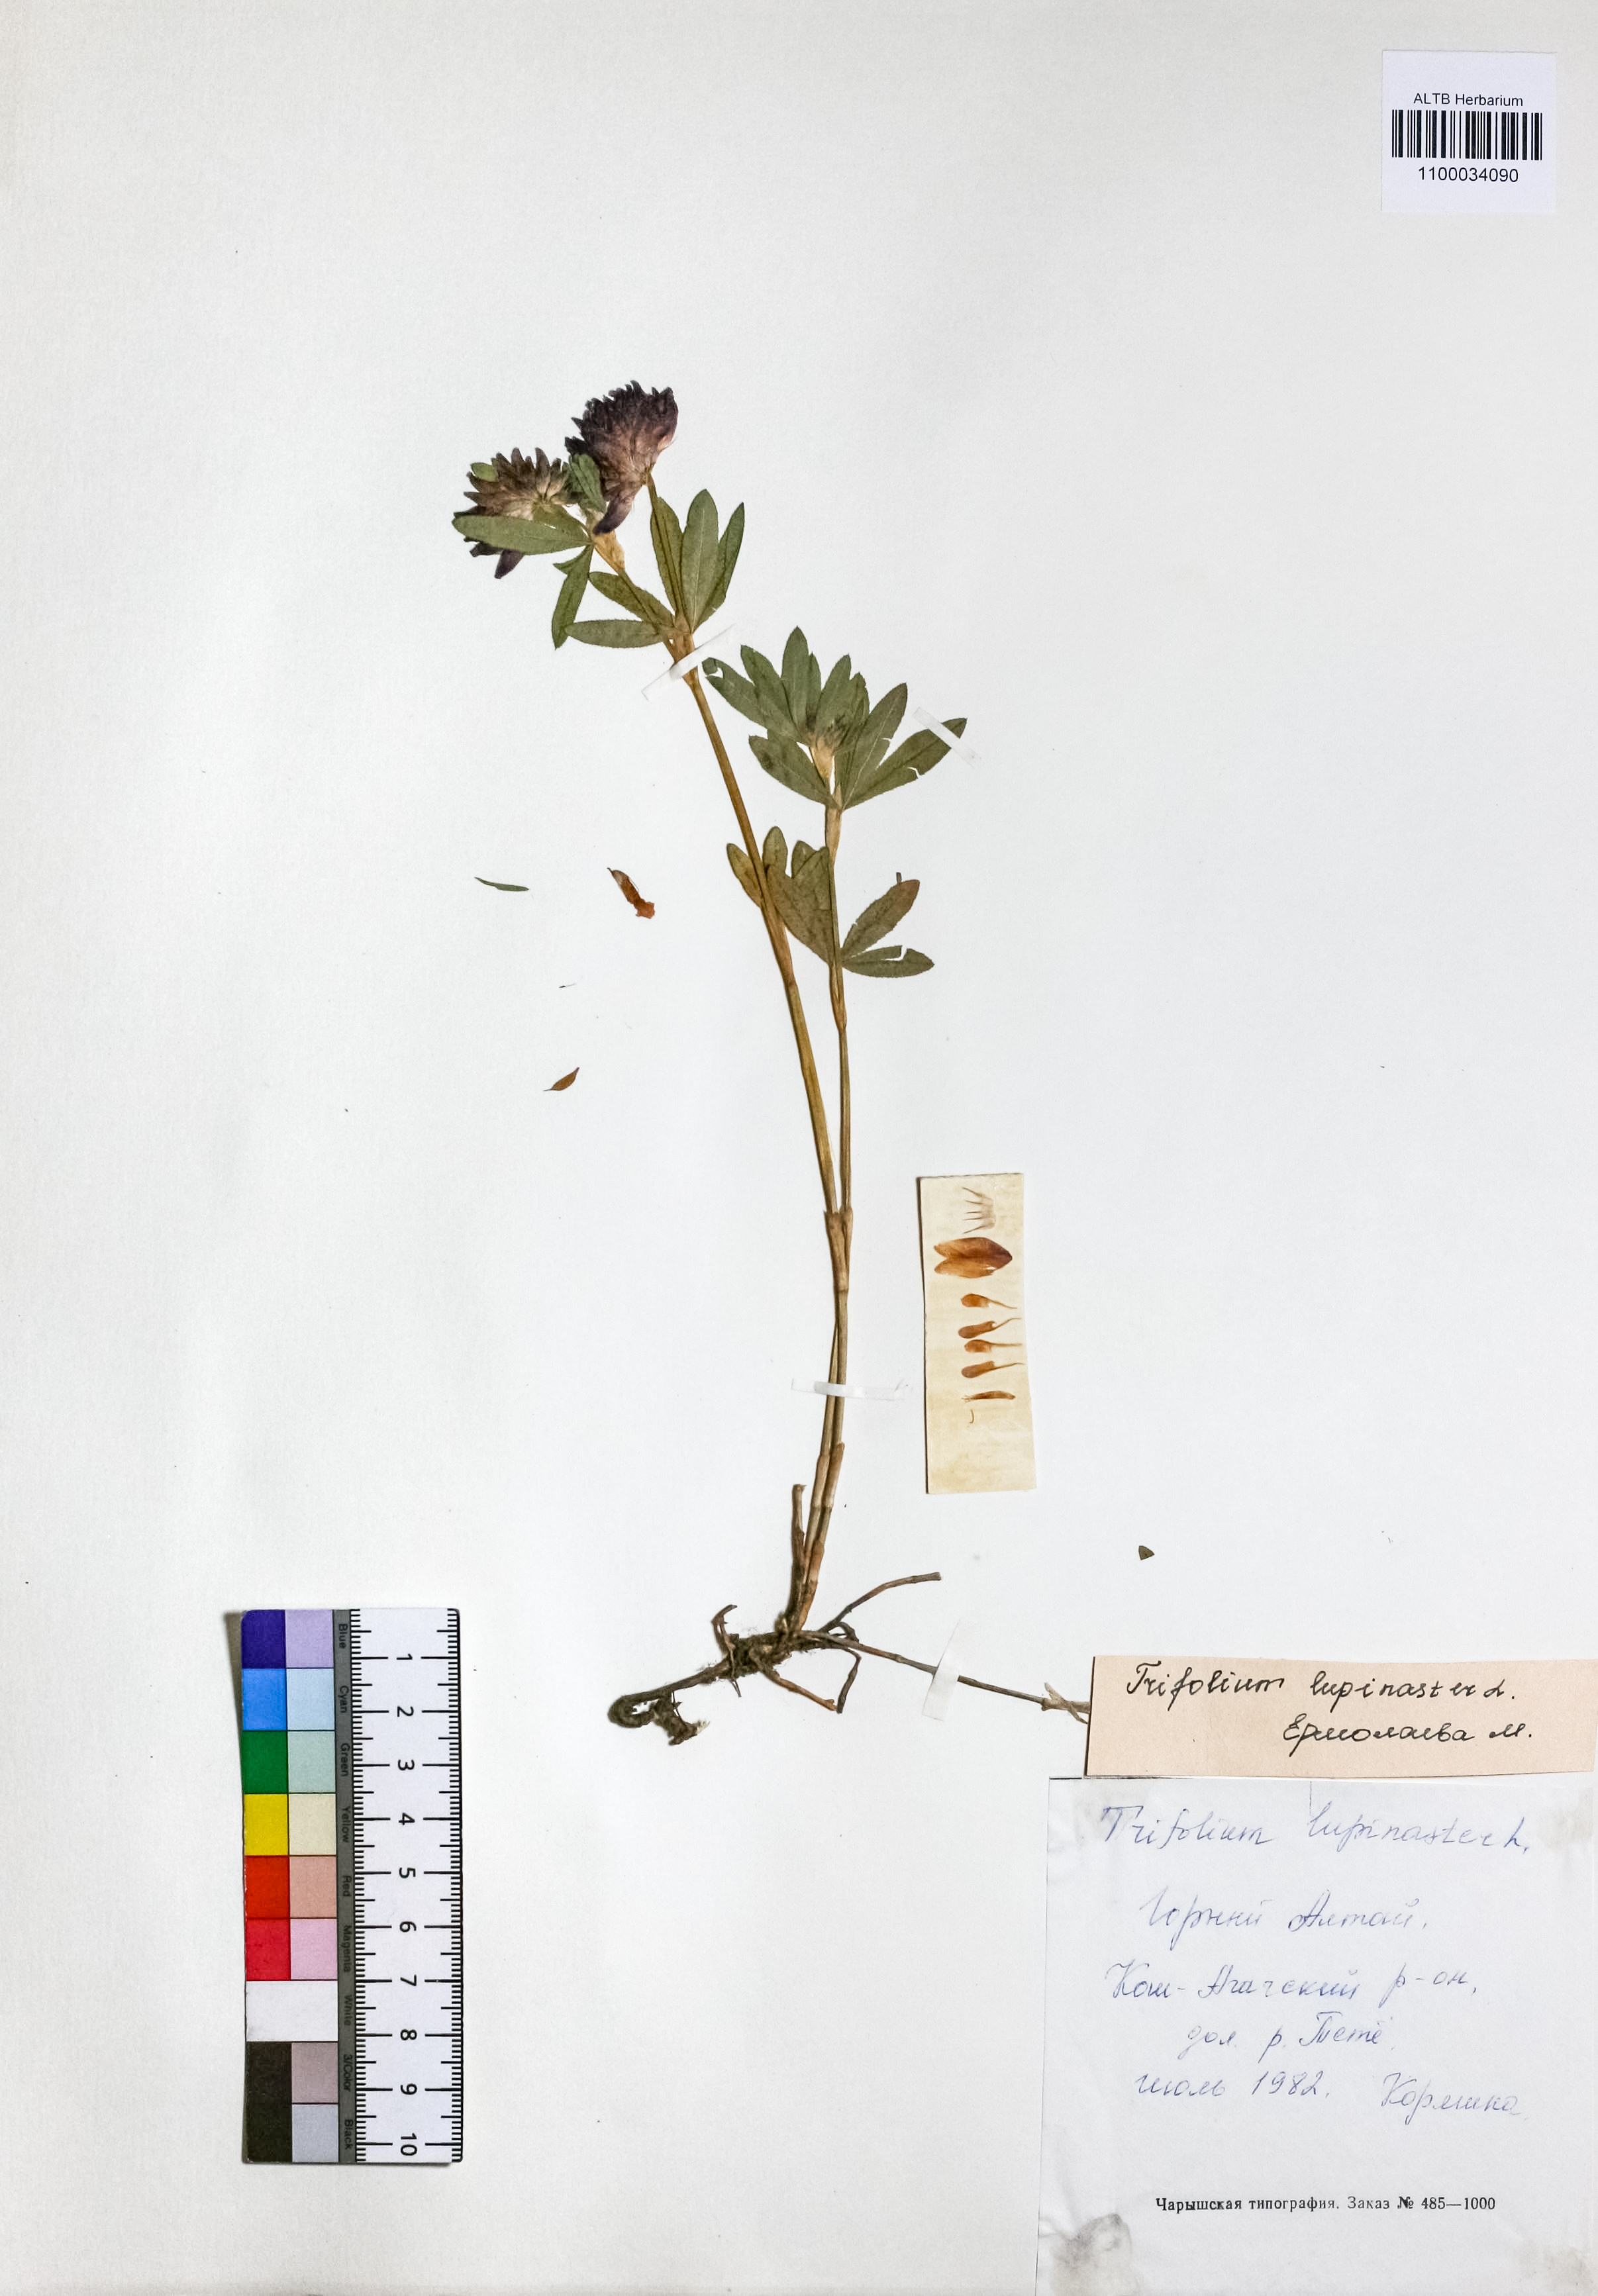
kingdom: Plantae
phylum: Tracheophyta
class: Magnoliopsida
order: Fabales
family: Fabaceae
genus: Trifolium
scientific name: Trifolium lupinaster
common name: Lupine clover
